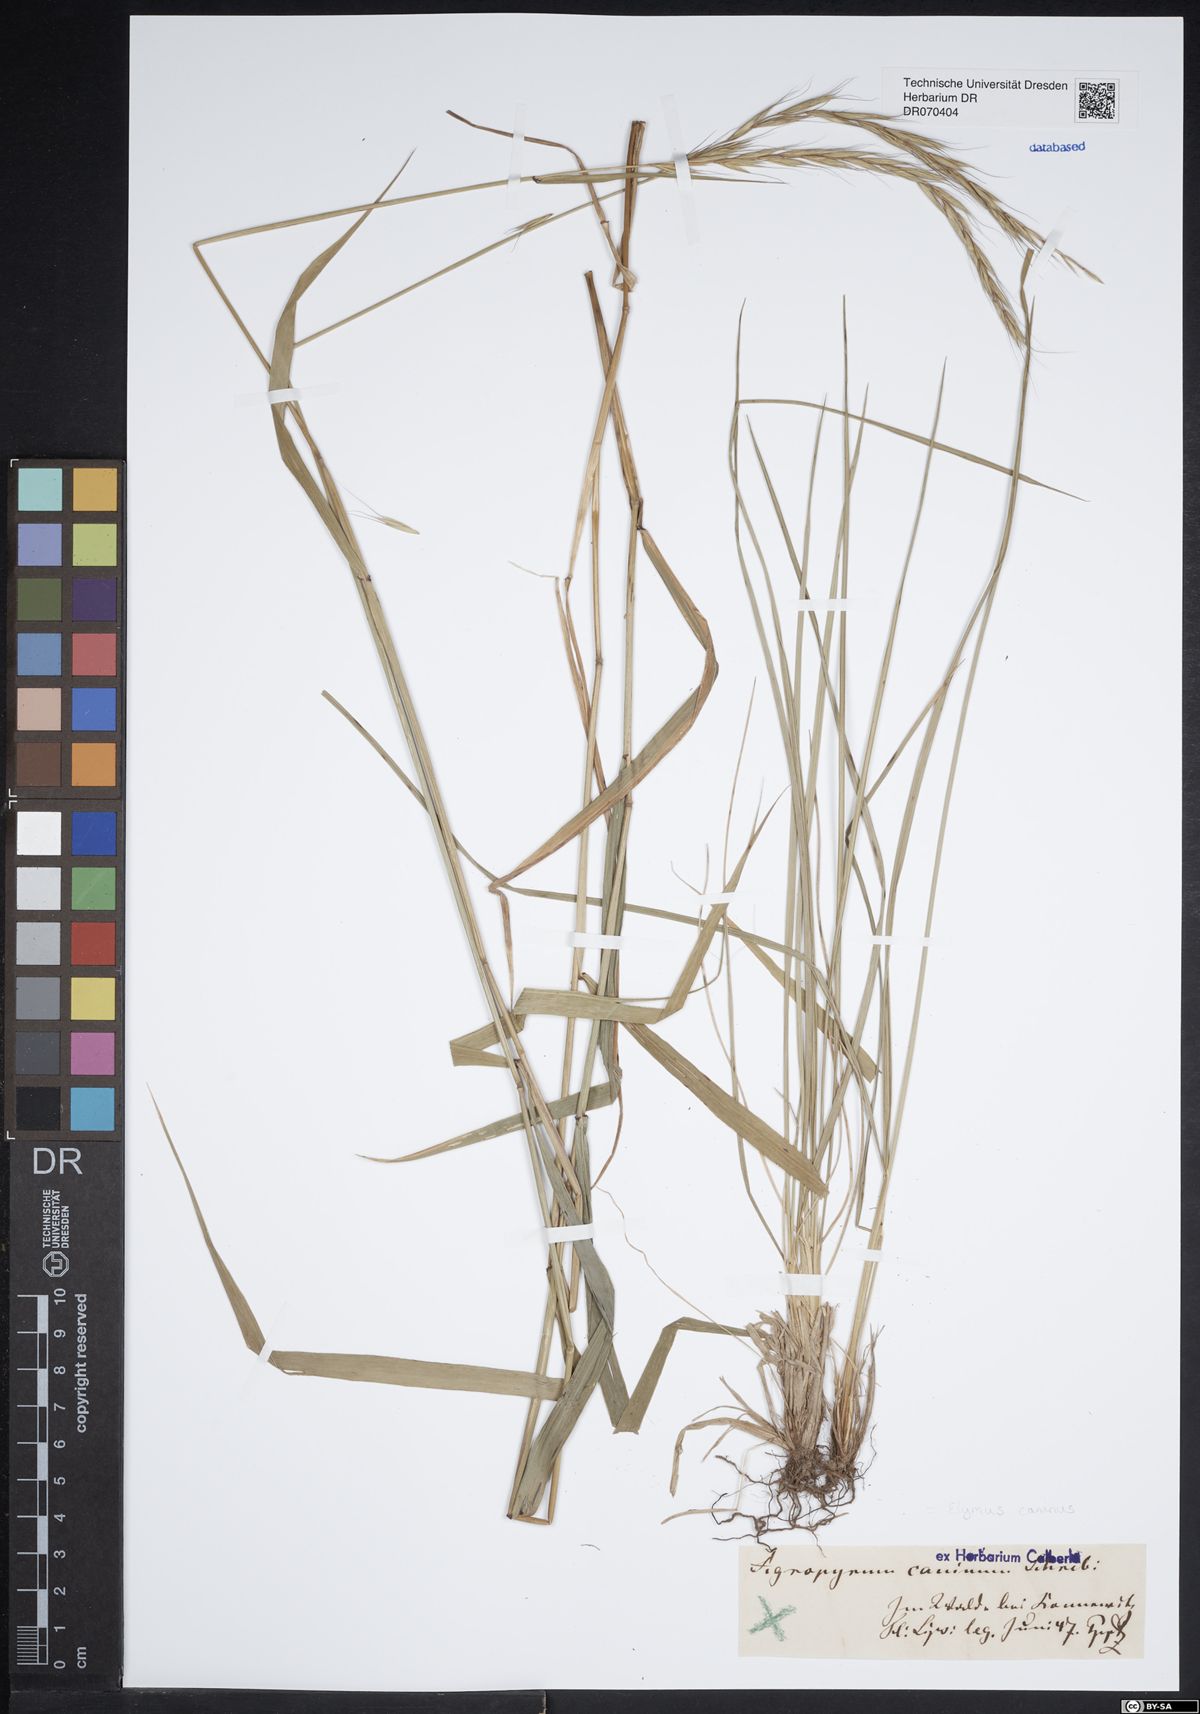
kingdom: Plantae
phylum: Tracheophyta
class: Liliopsida
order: Poales
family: Poaceae
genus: Elymus
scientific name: Elymus caninus
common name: Bearded couch
